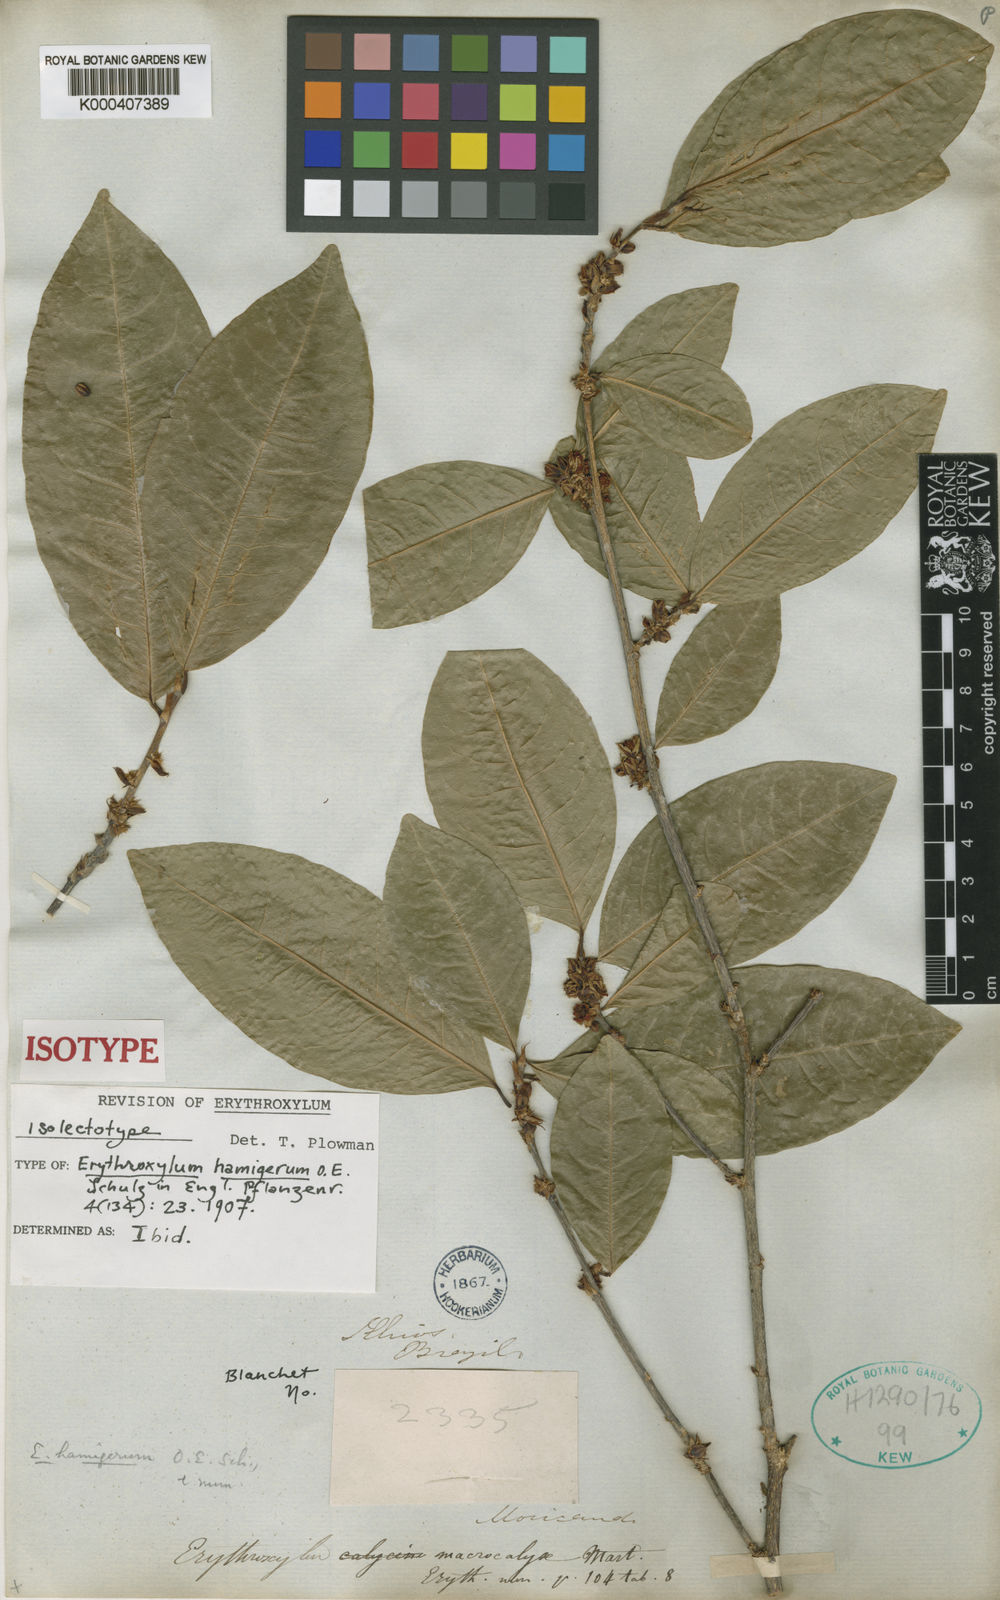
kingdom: Plantae
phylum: Tracheophyta
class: Magnoliopsida
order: Malpighiales
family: Erythroxylaceae
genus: Erythroxylum
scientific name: Erythroxylum hamigerum
